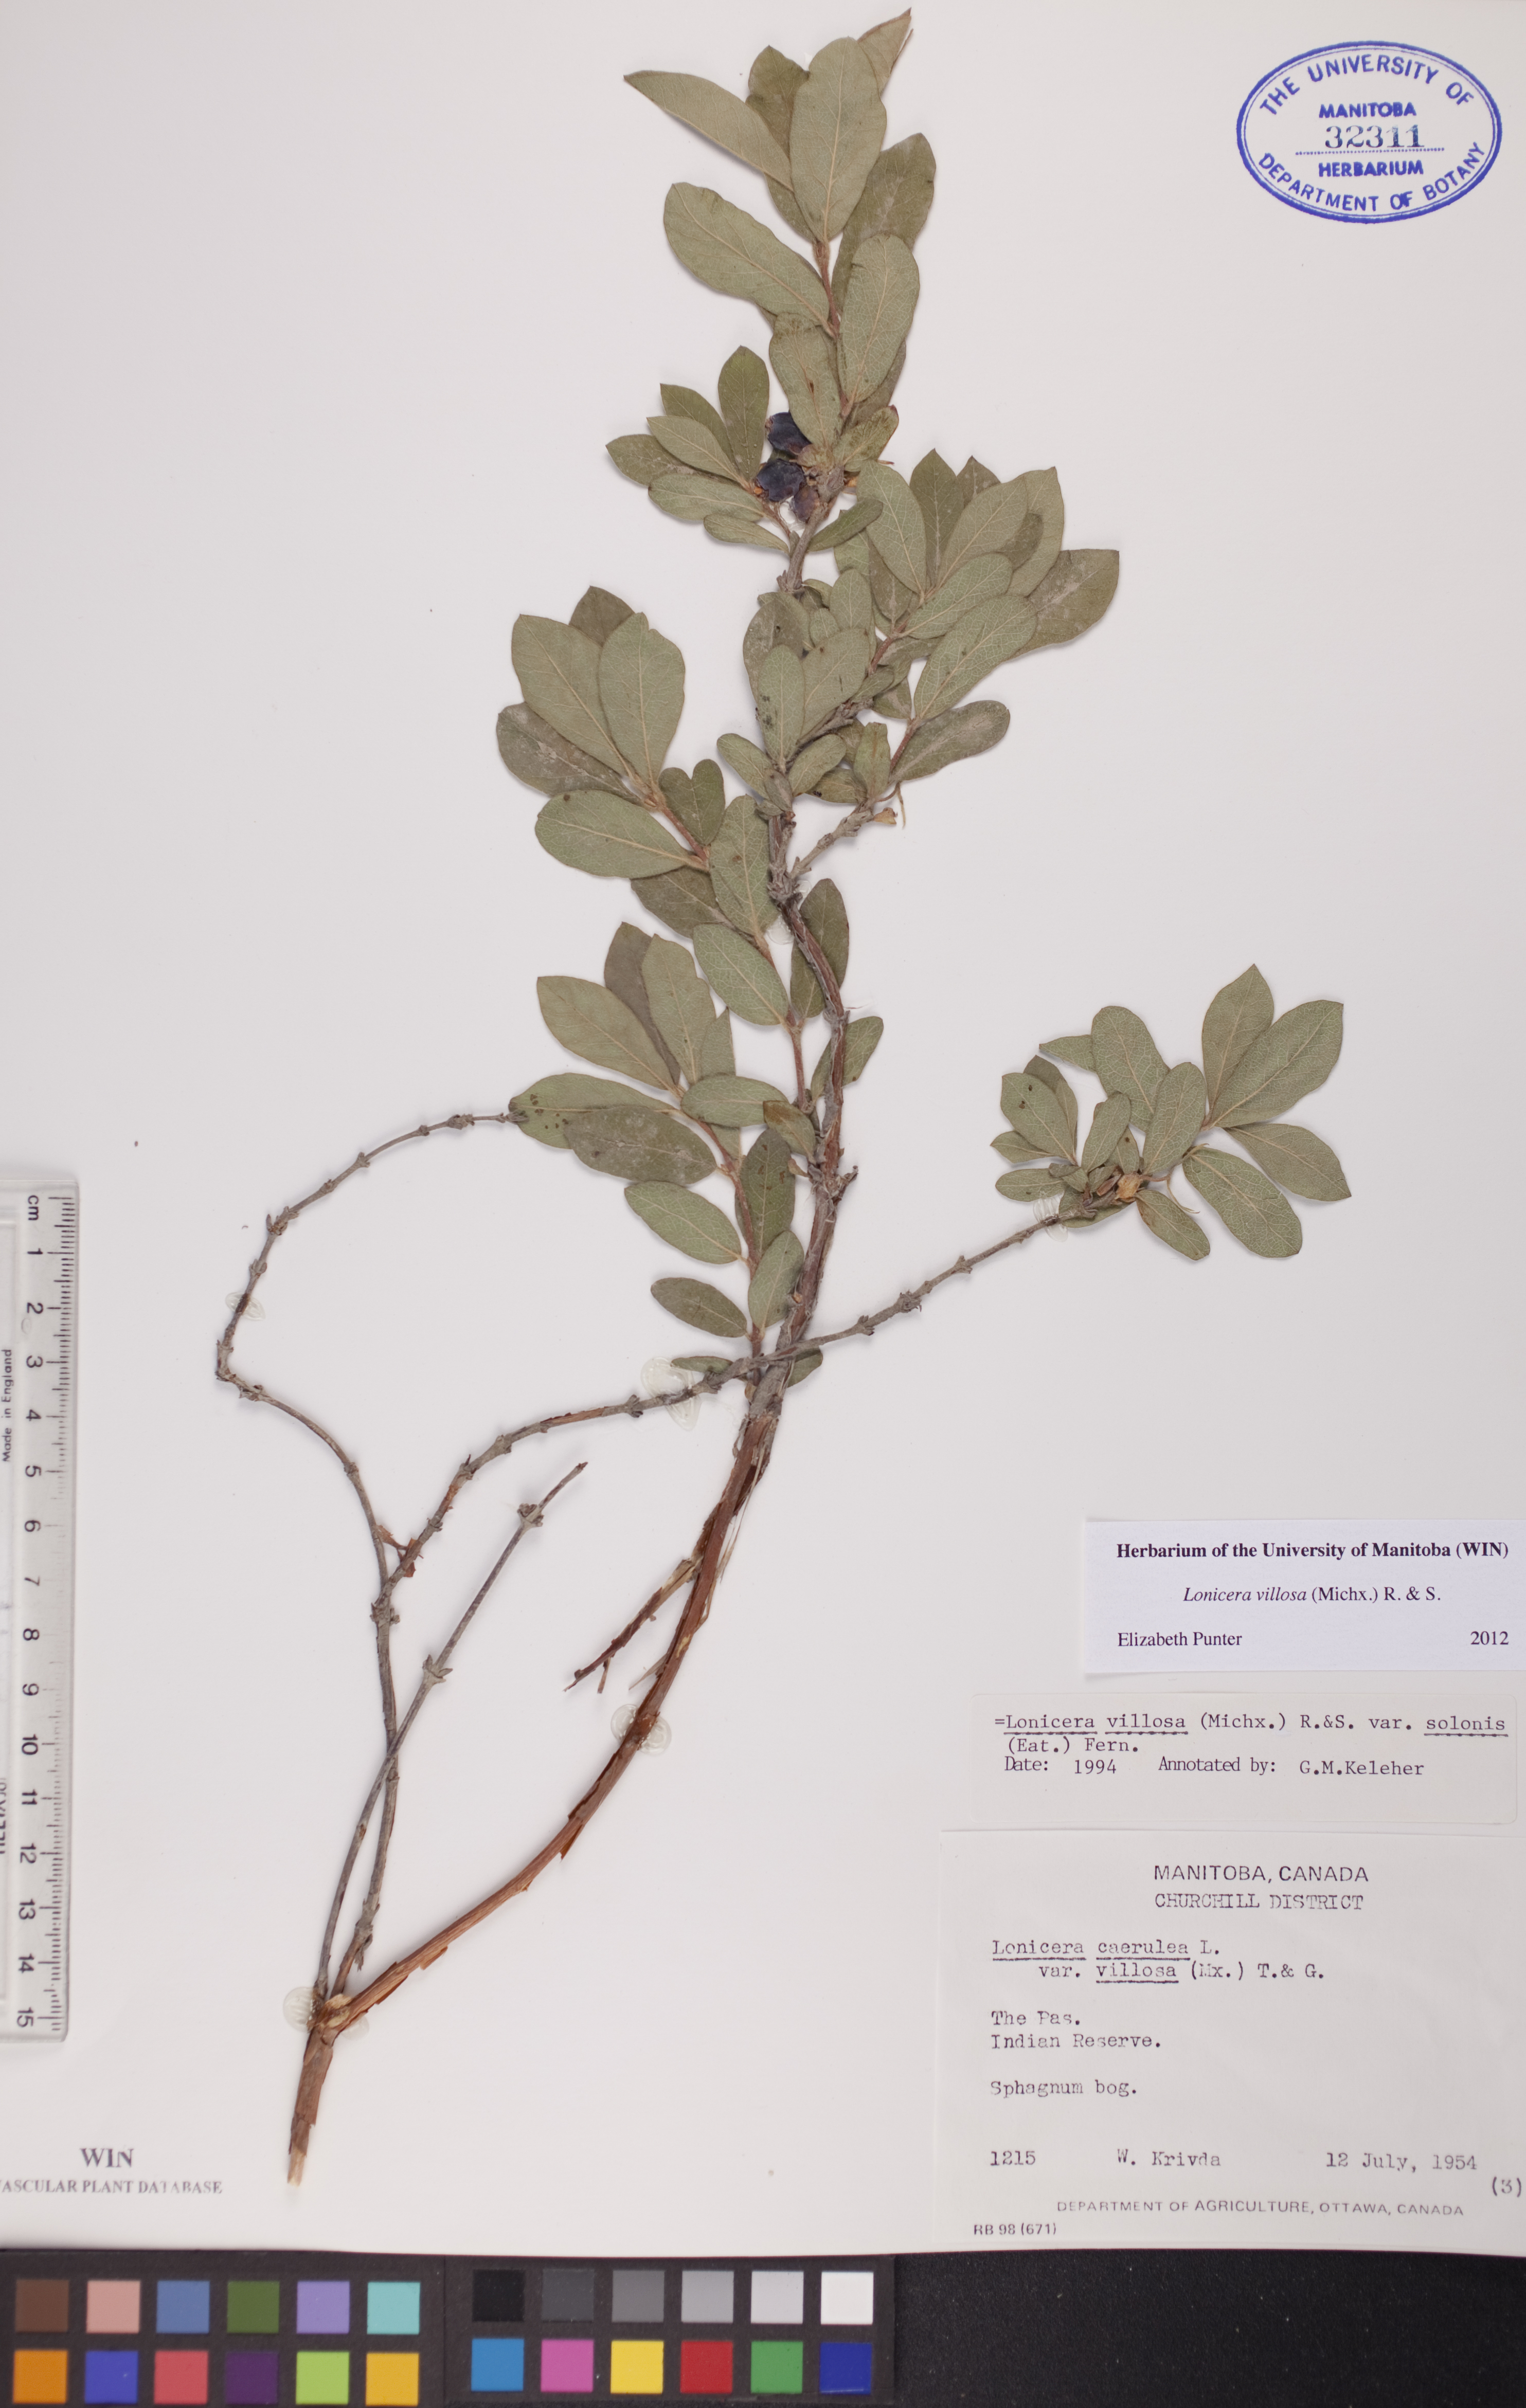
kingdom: Plantae
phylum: Tracheophyta
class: Magnoliopsida
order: Dipsacales
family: Caprifoliaceae
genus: Lonicera
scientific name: Lonicera villosa
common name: Mountain fly-honeysuckle
